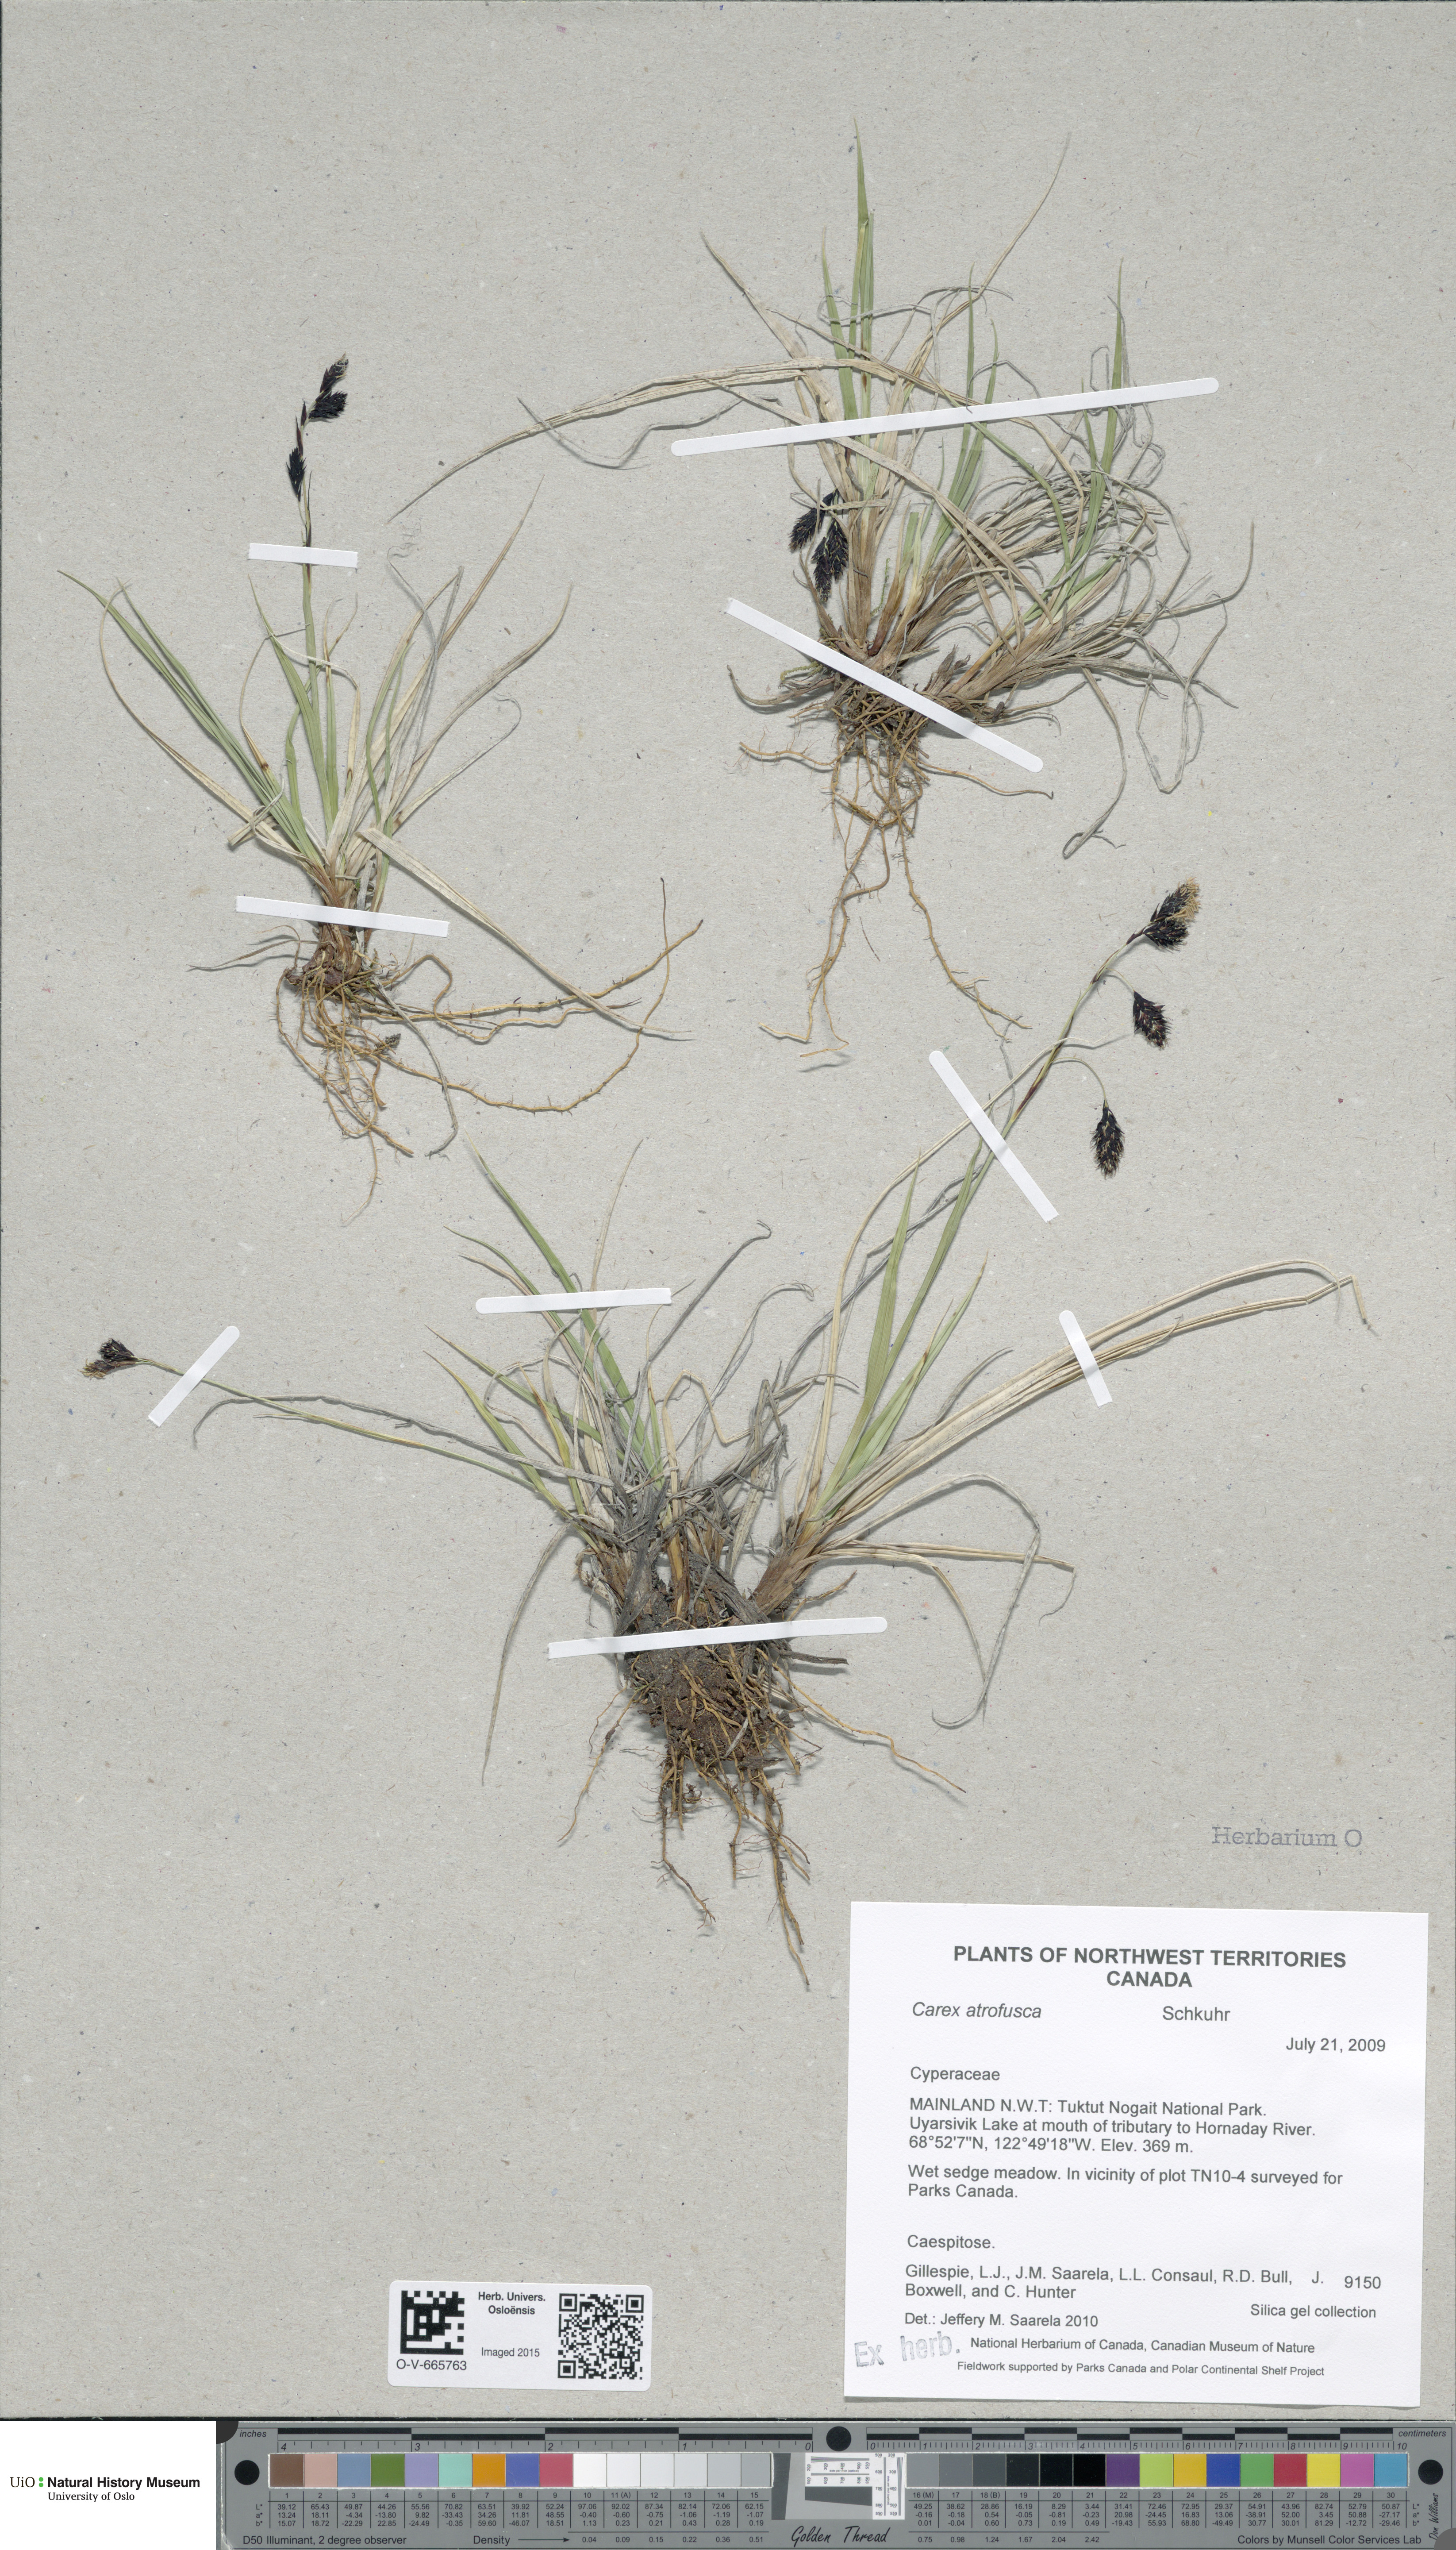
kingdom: Plantae
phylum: Tracheophyta
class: Liliopsida
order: Poales
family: Cyperaceae
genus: Carex
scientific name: Carex atrofusca
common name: Scorched alpine-sedge
